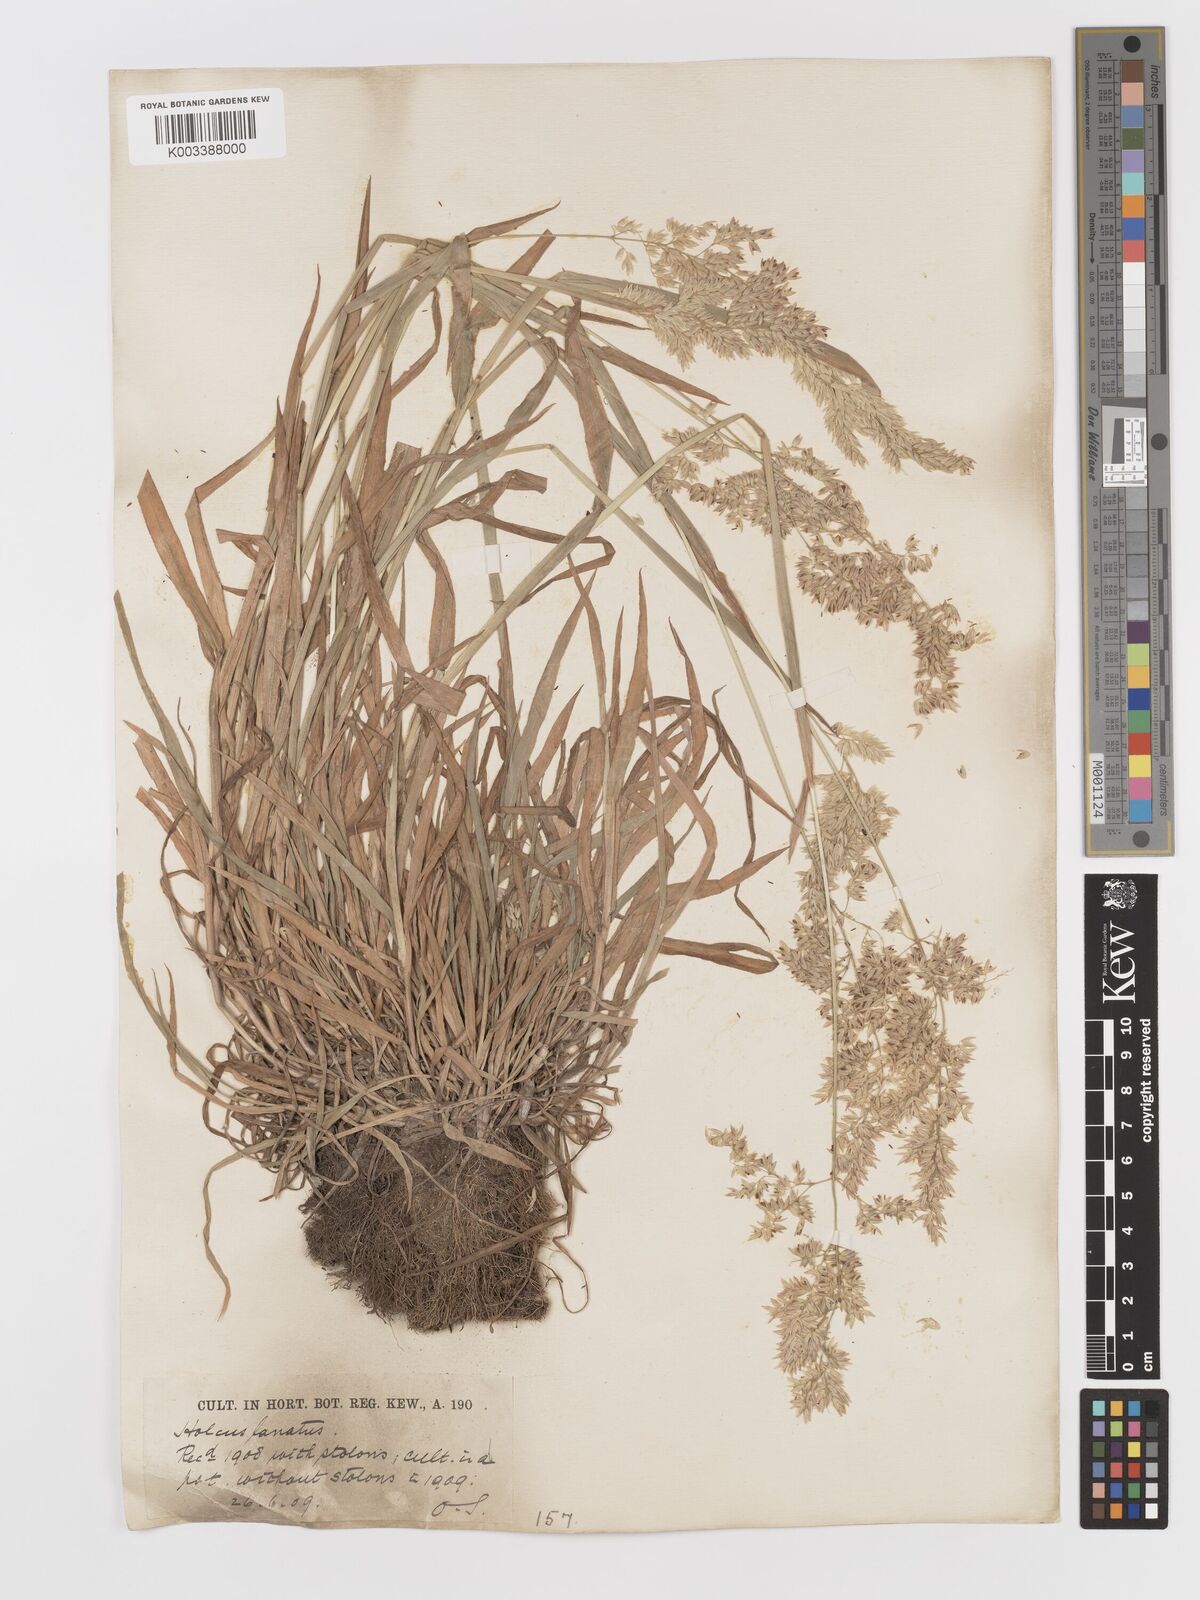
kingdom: Plantae
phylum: Tracheophyta
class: Liliopsida
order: Poales
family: Poaceae
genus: Holcus
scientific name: Holcus lanatus
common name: Yorkshire-fog
